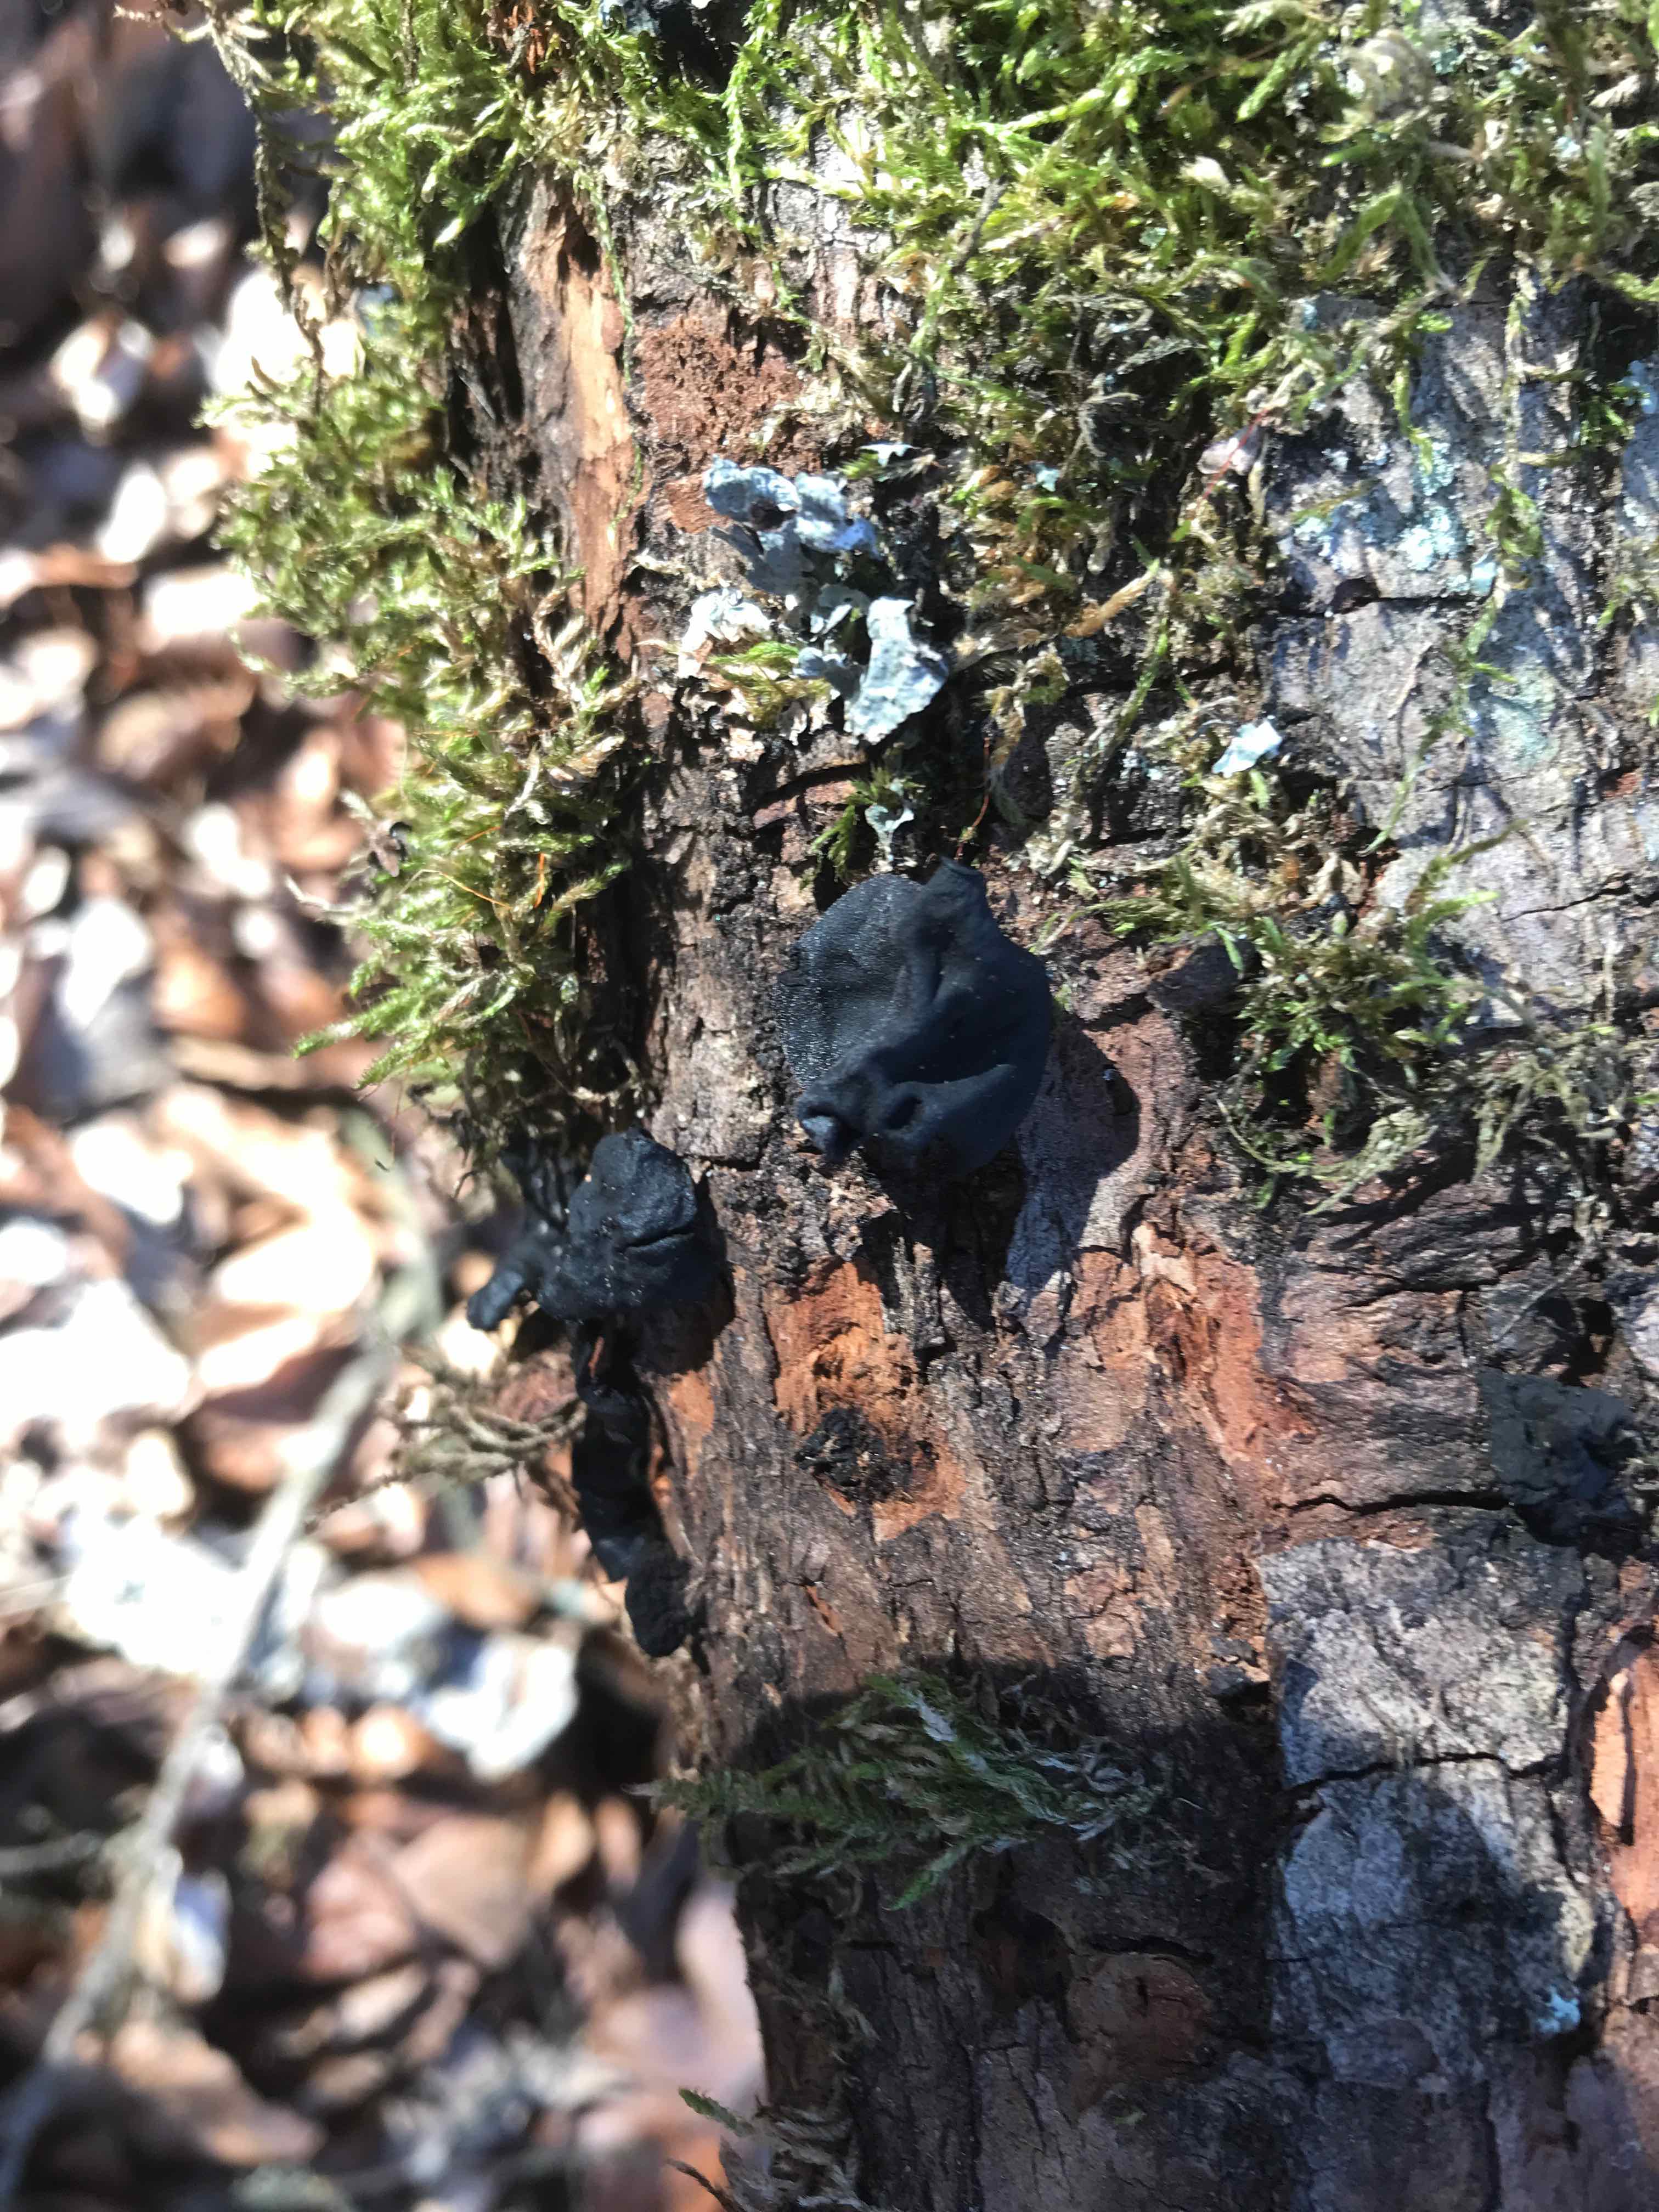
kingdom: Fungi
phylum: Ascomycota
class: Leotiomycetes
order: Phacidiales
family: Phacidiaceae
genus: Bulgaria
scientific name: Bulgaria inquinans
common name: afsmittende topsvamp
